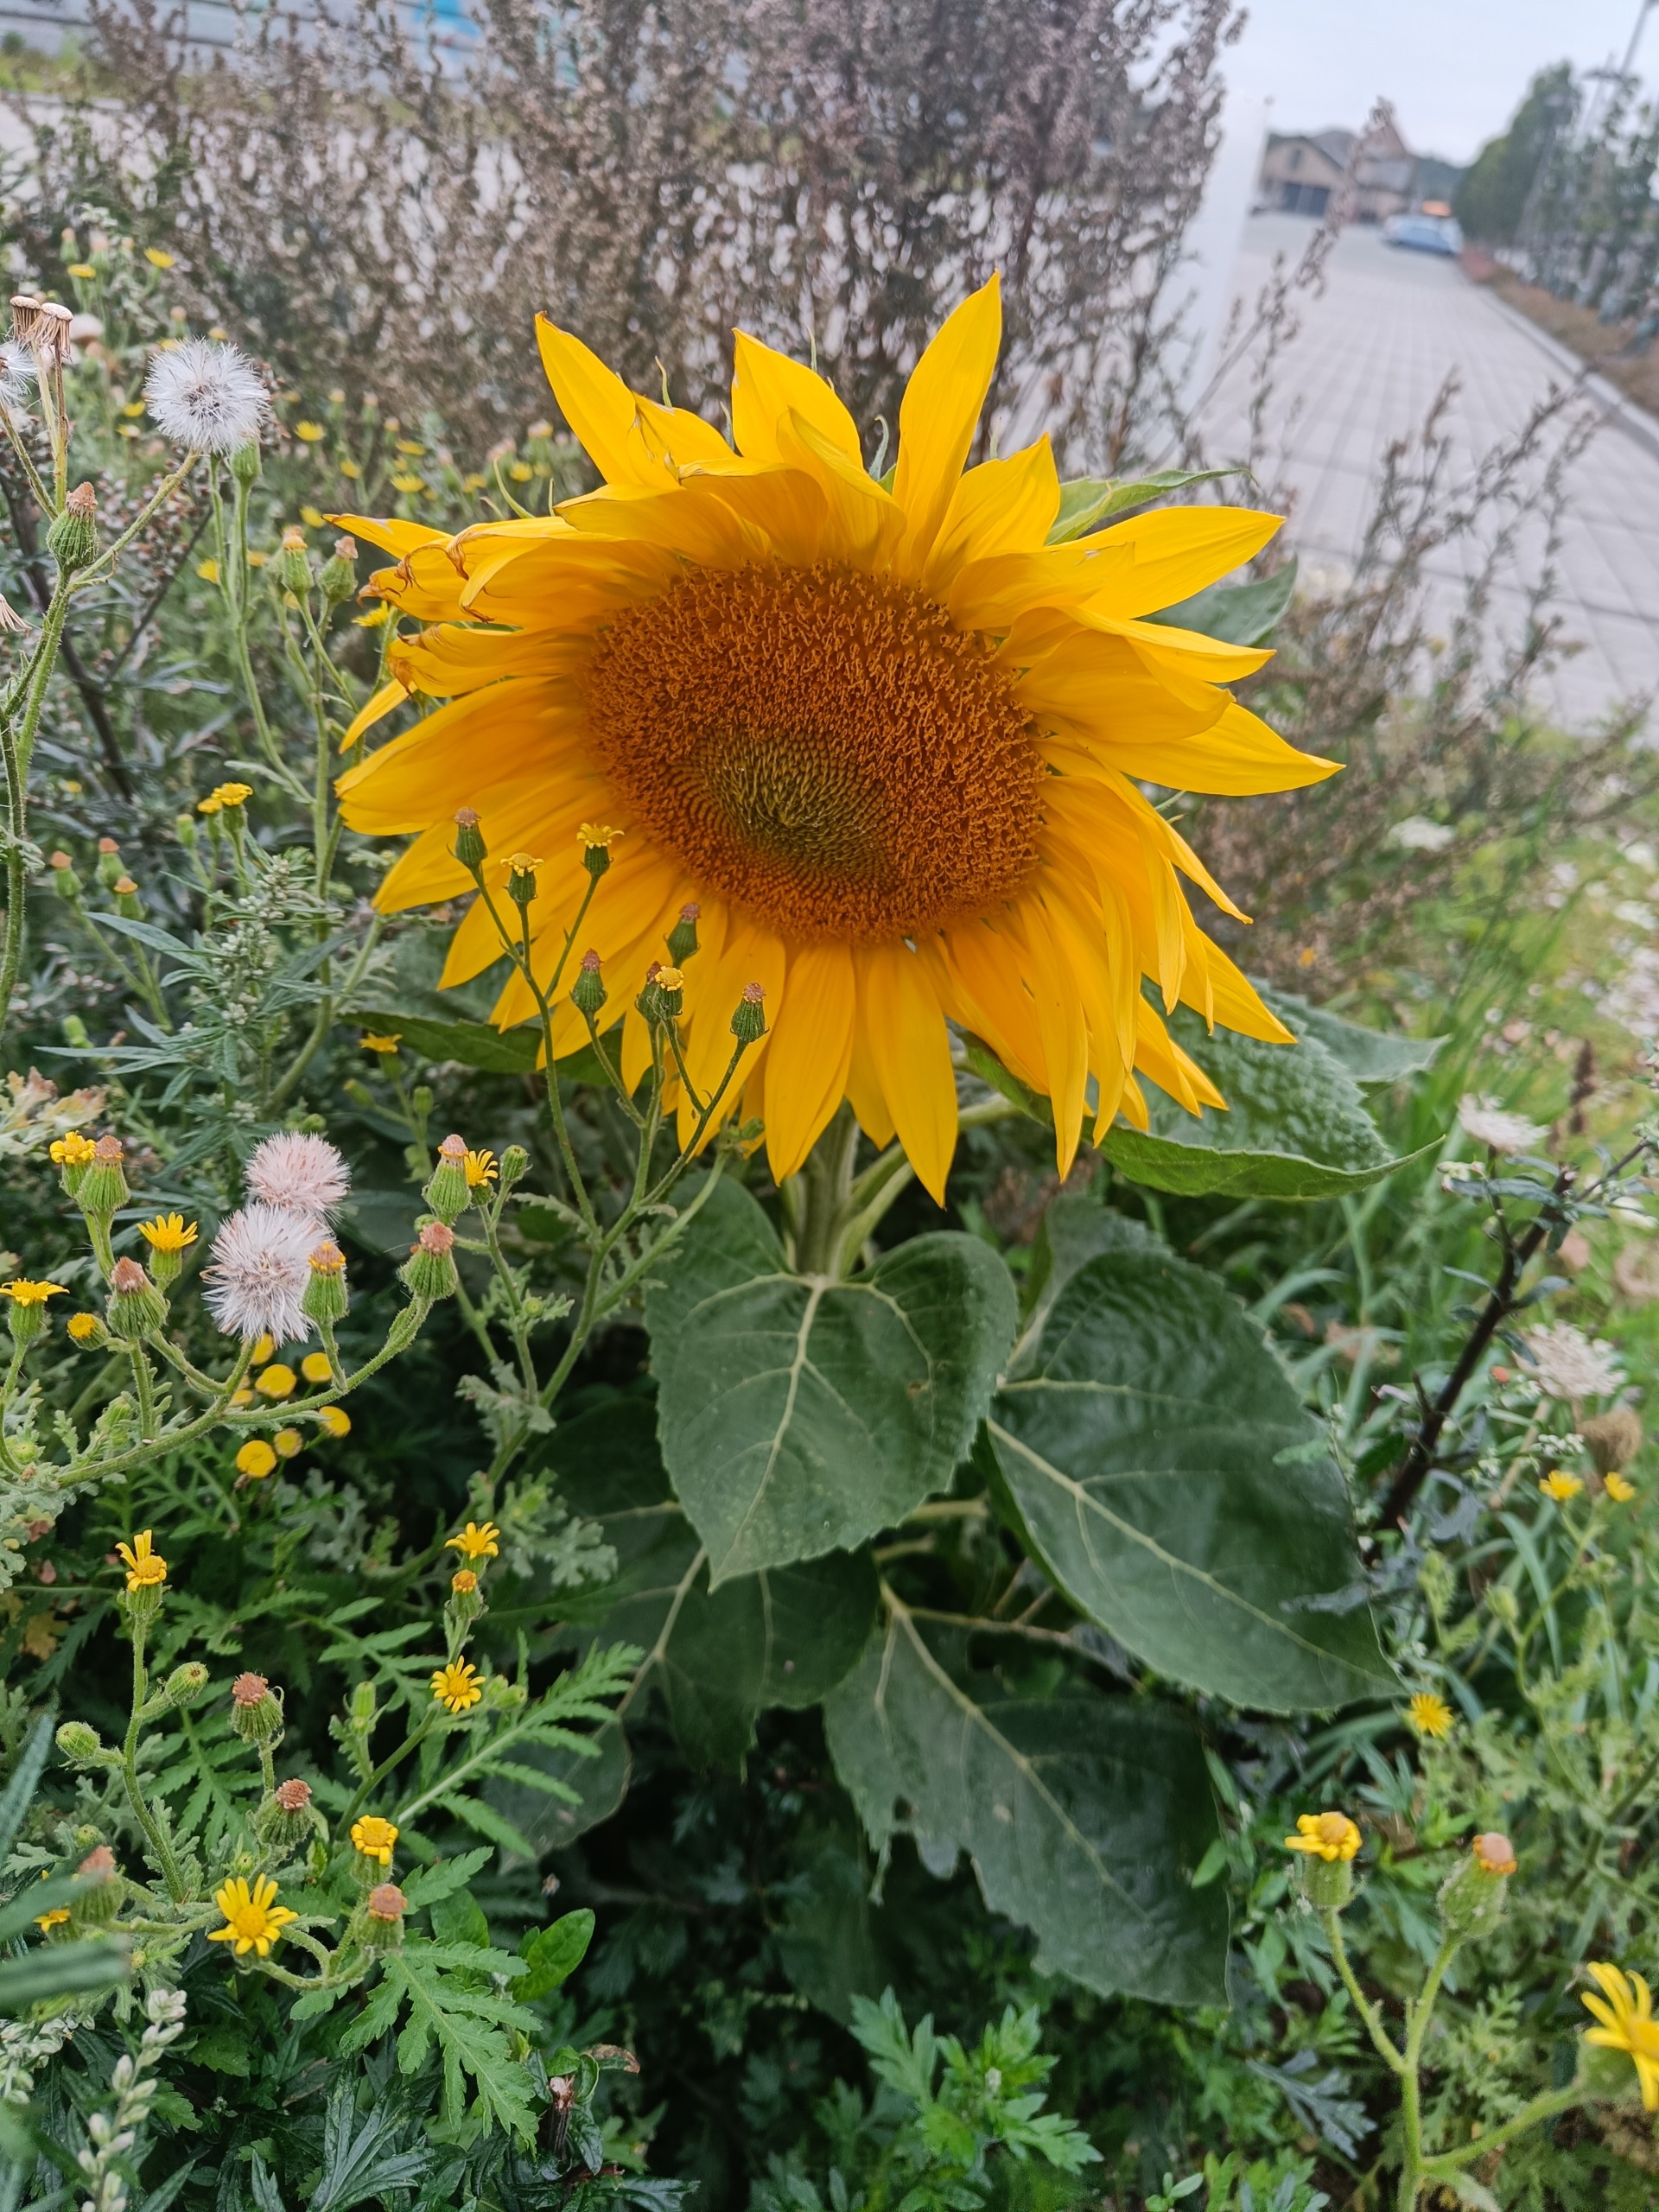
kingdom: Plantae
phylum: Tracheophyta
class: Magnoliopsida
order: Asterales
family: Asteraceae
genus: Helianthus
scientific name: Helianthus annuus
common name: Solsikke
